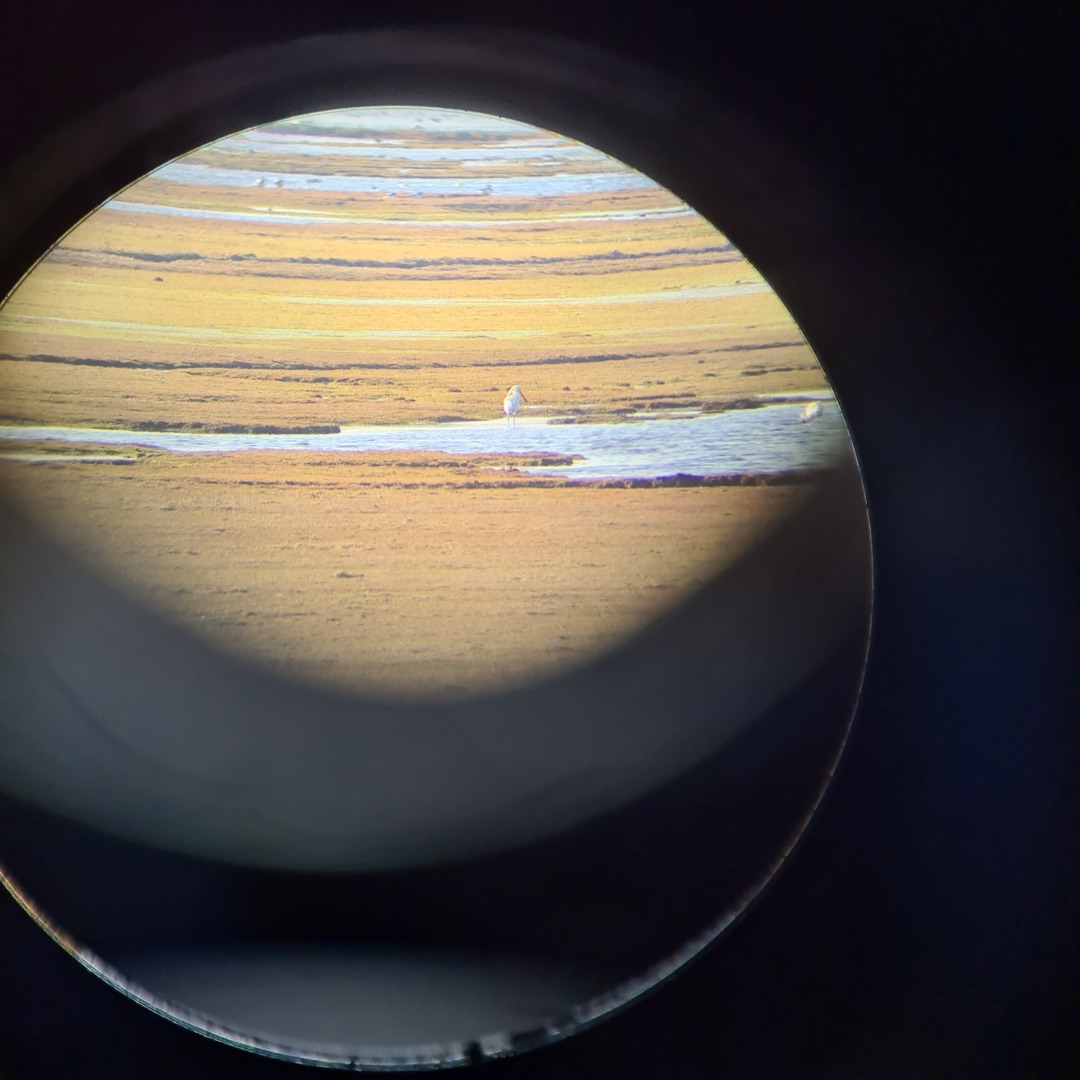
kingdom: Animalia
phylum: Chordata
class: Aves
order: Pelecaniformes
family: Threskiornithidae
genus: Platalea
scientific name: Platalea leucorodia
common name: Skestork
